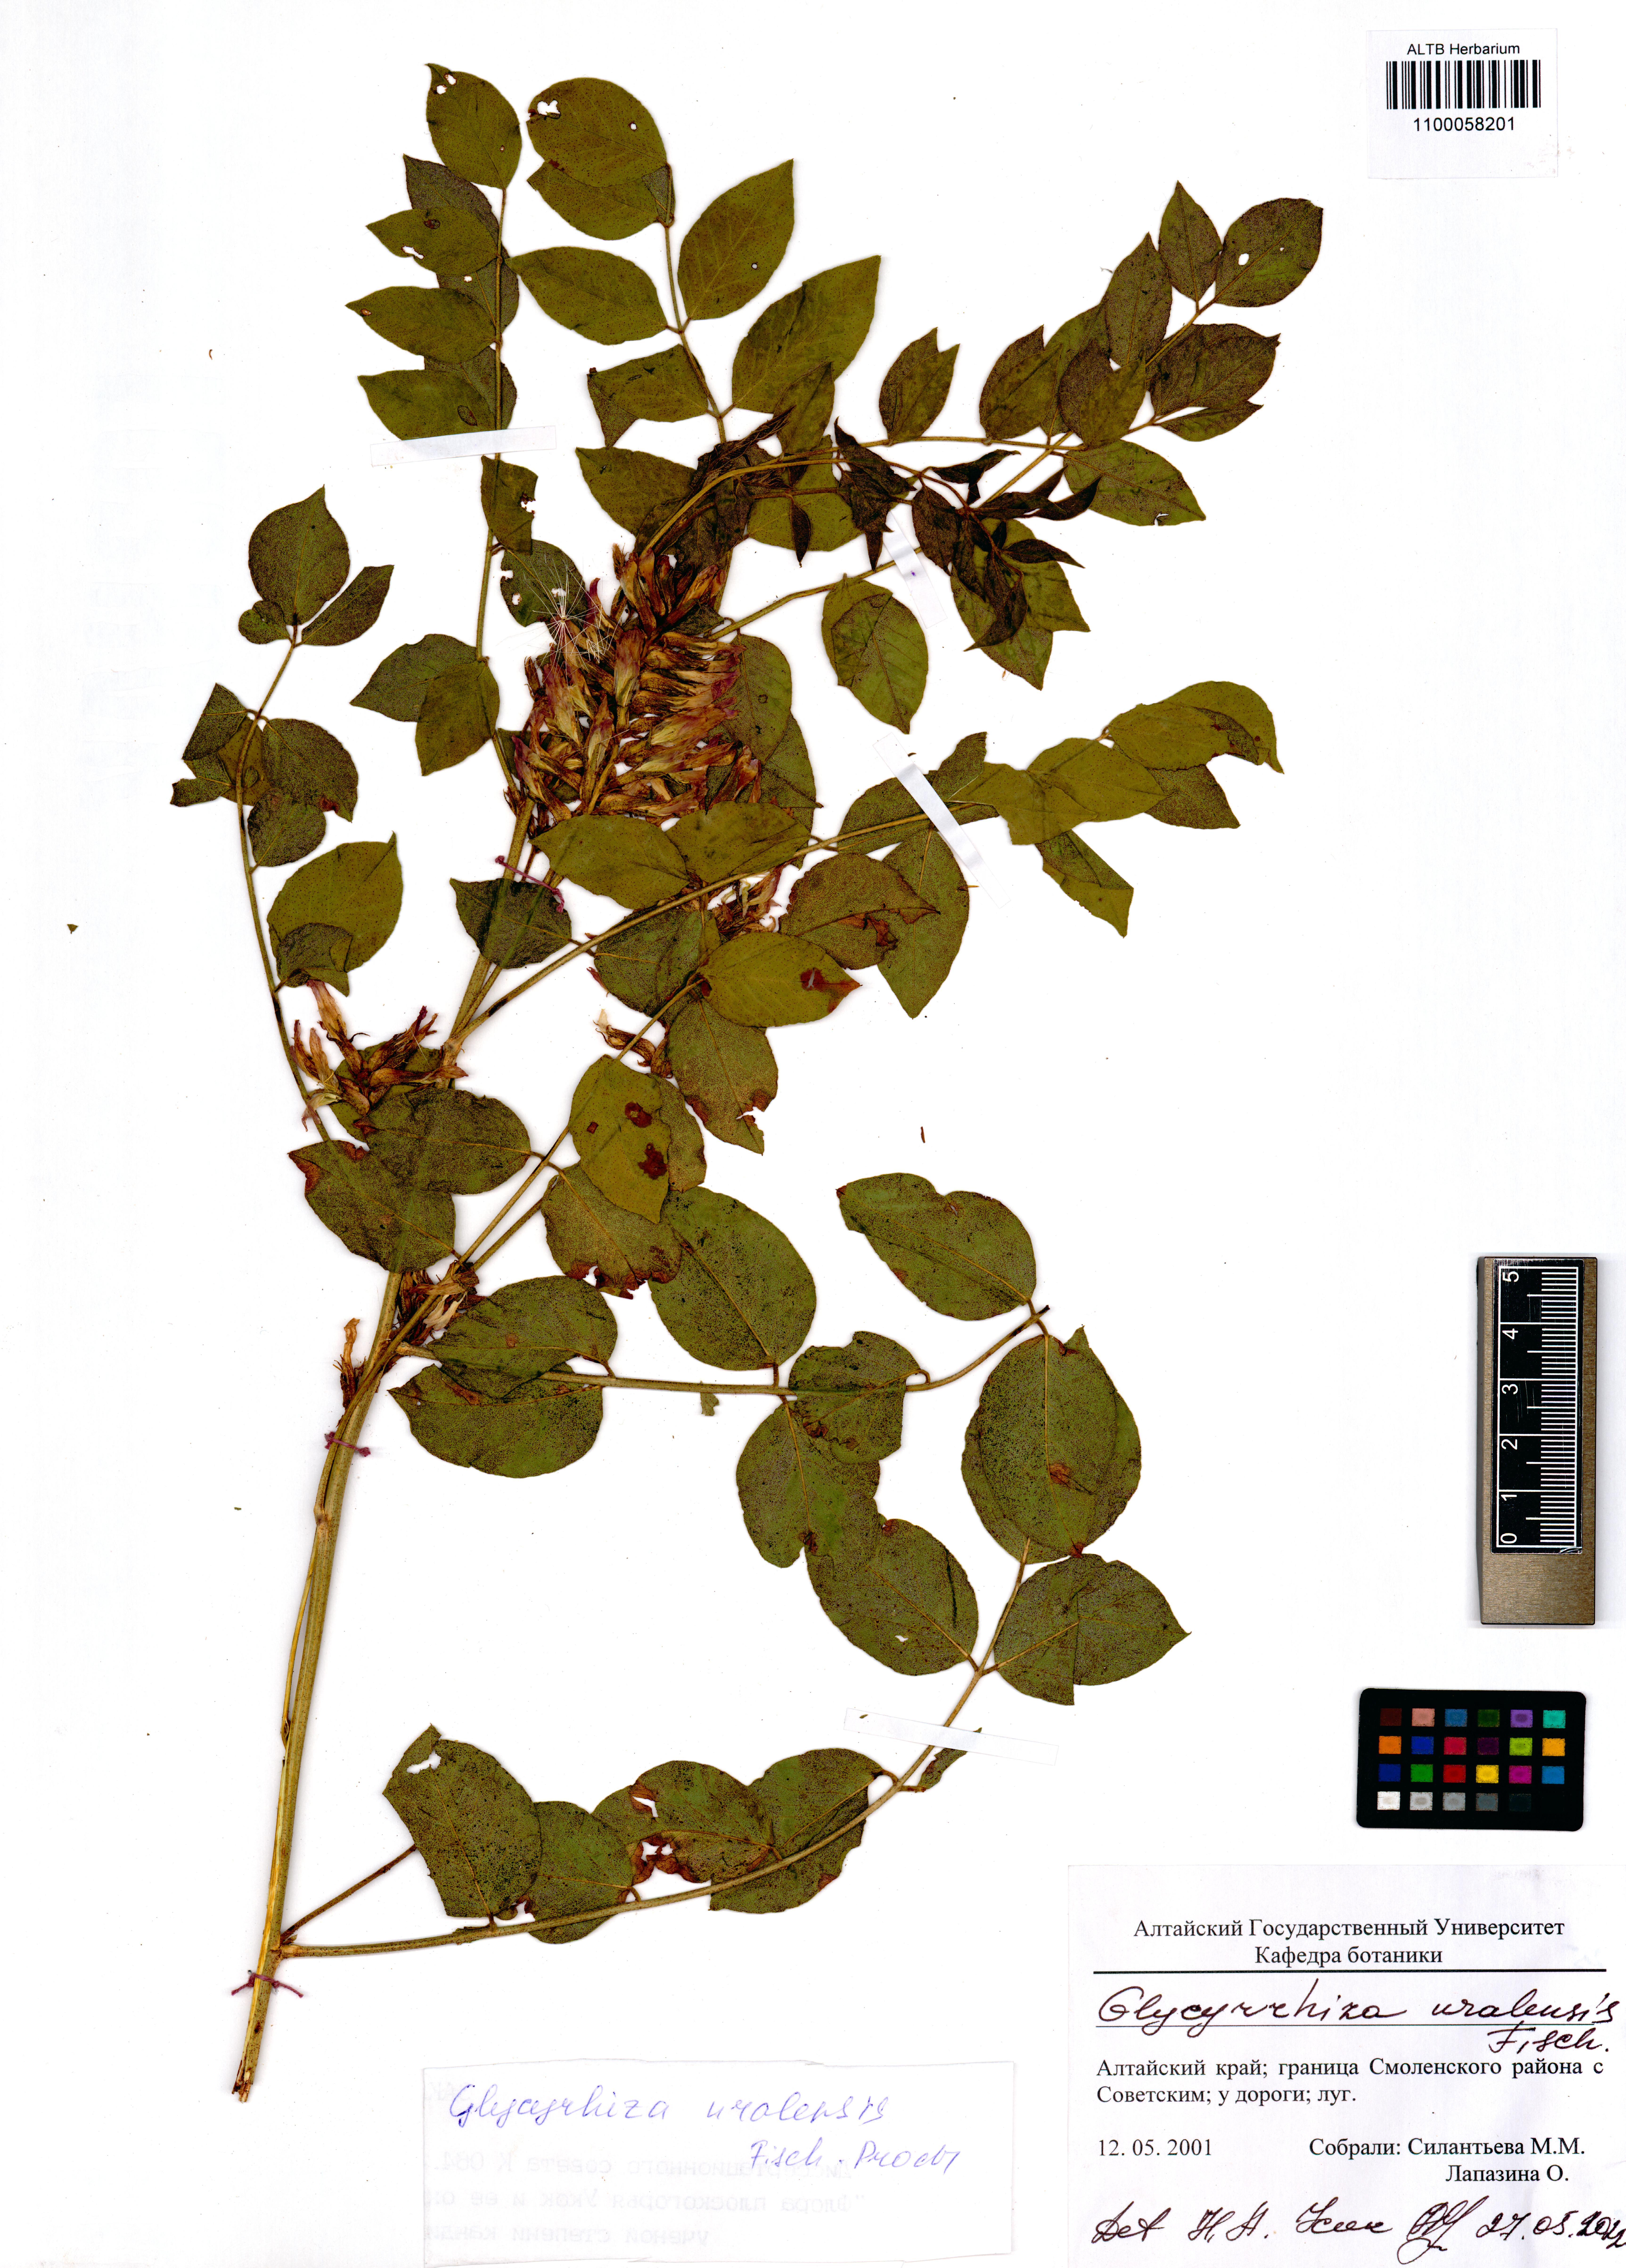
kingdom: Plantae
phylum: Tracheophyta
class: Magnoliopsida
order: Fabales
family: Fabaceae
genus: Glycyrrhiza
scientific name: Glycyrrhiza uralensis
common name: Chinese licorice
